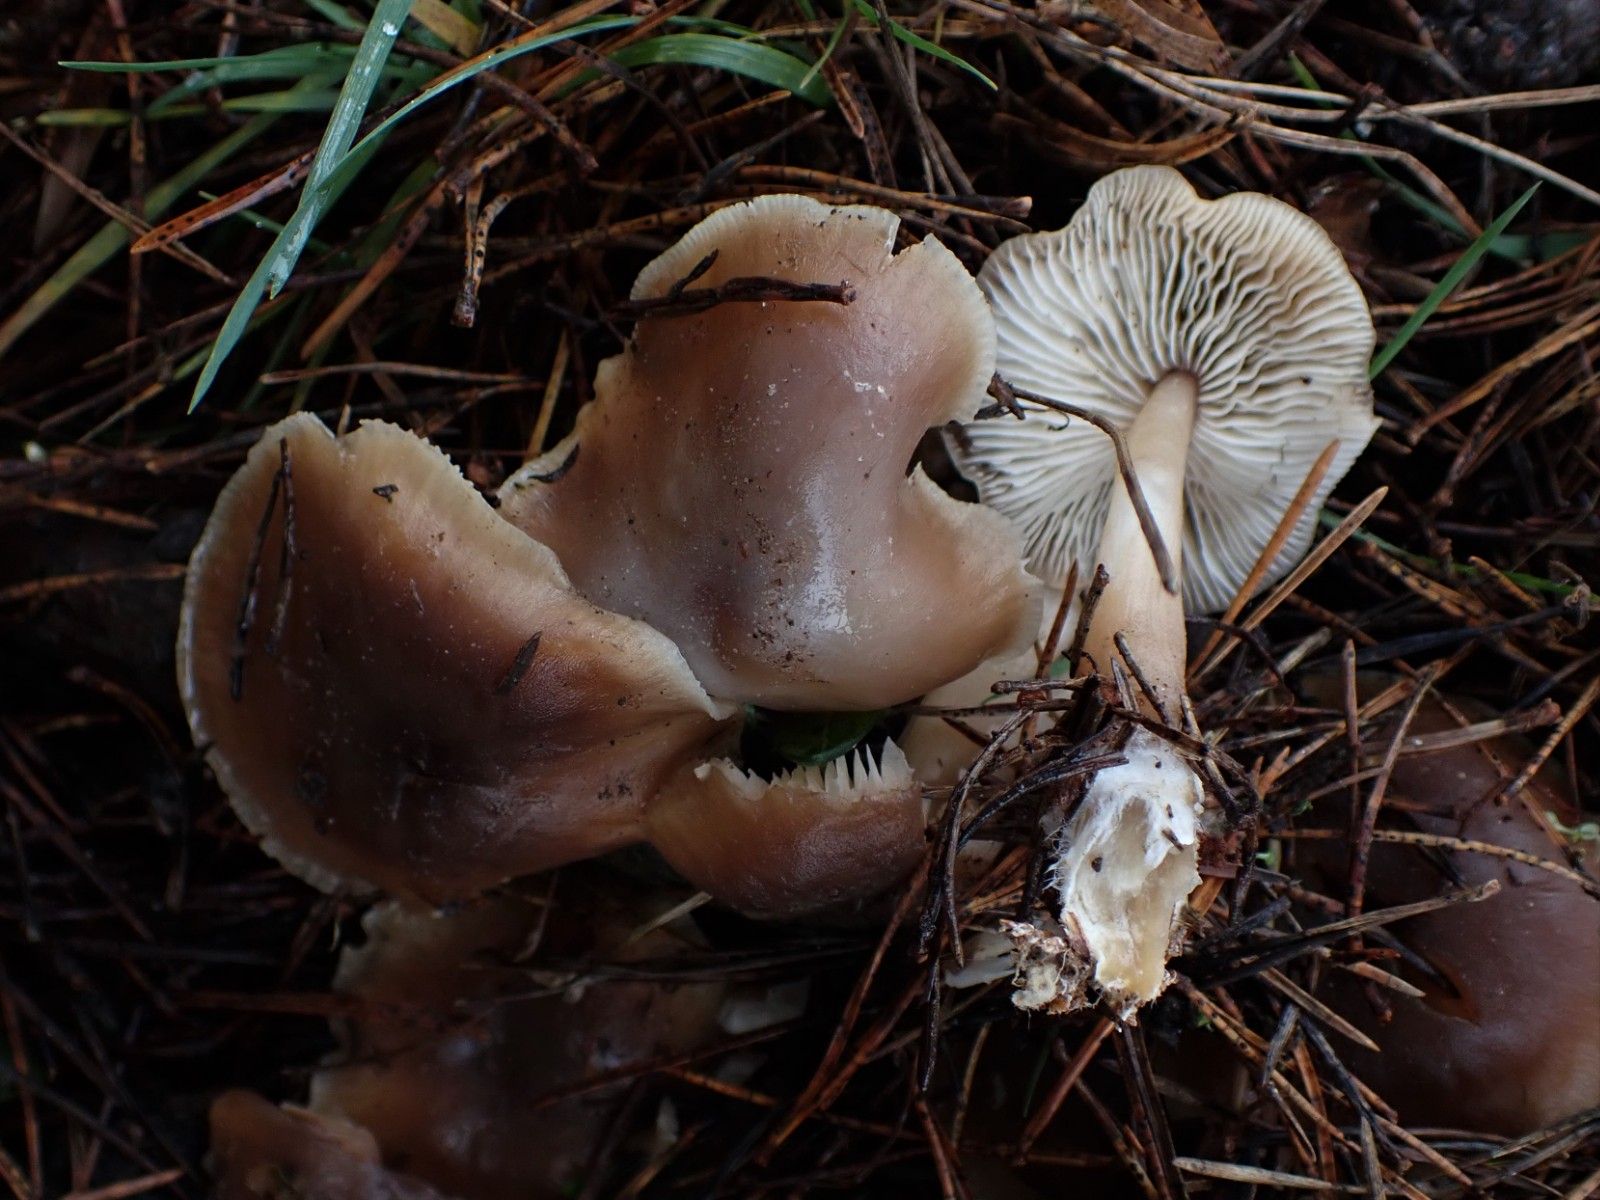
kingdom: Fungi
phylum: Basidiomycota
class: Agaricomycetes
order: Agaricales
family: Omphalotaceae
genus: Rhodocollybia
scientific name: Rhodocollybia asema
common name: horngrå fladhat
